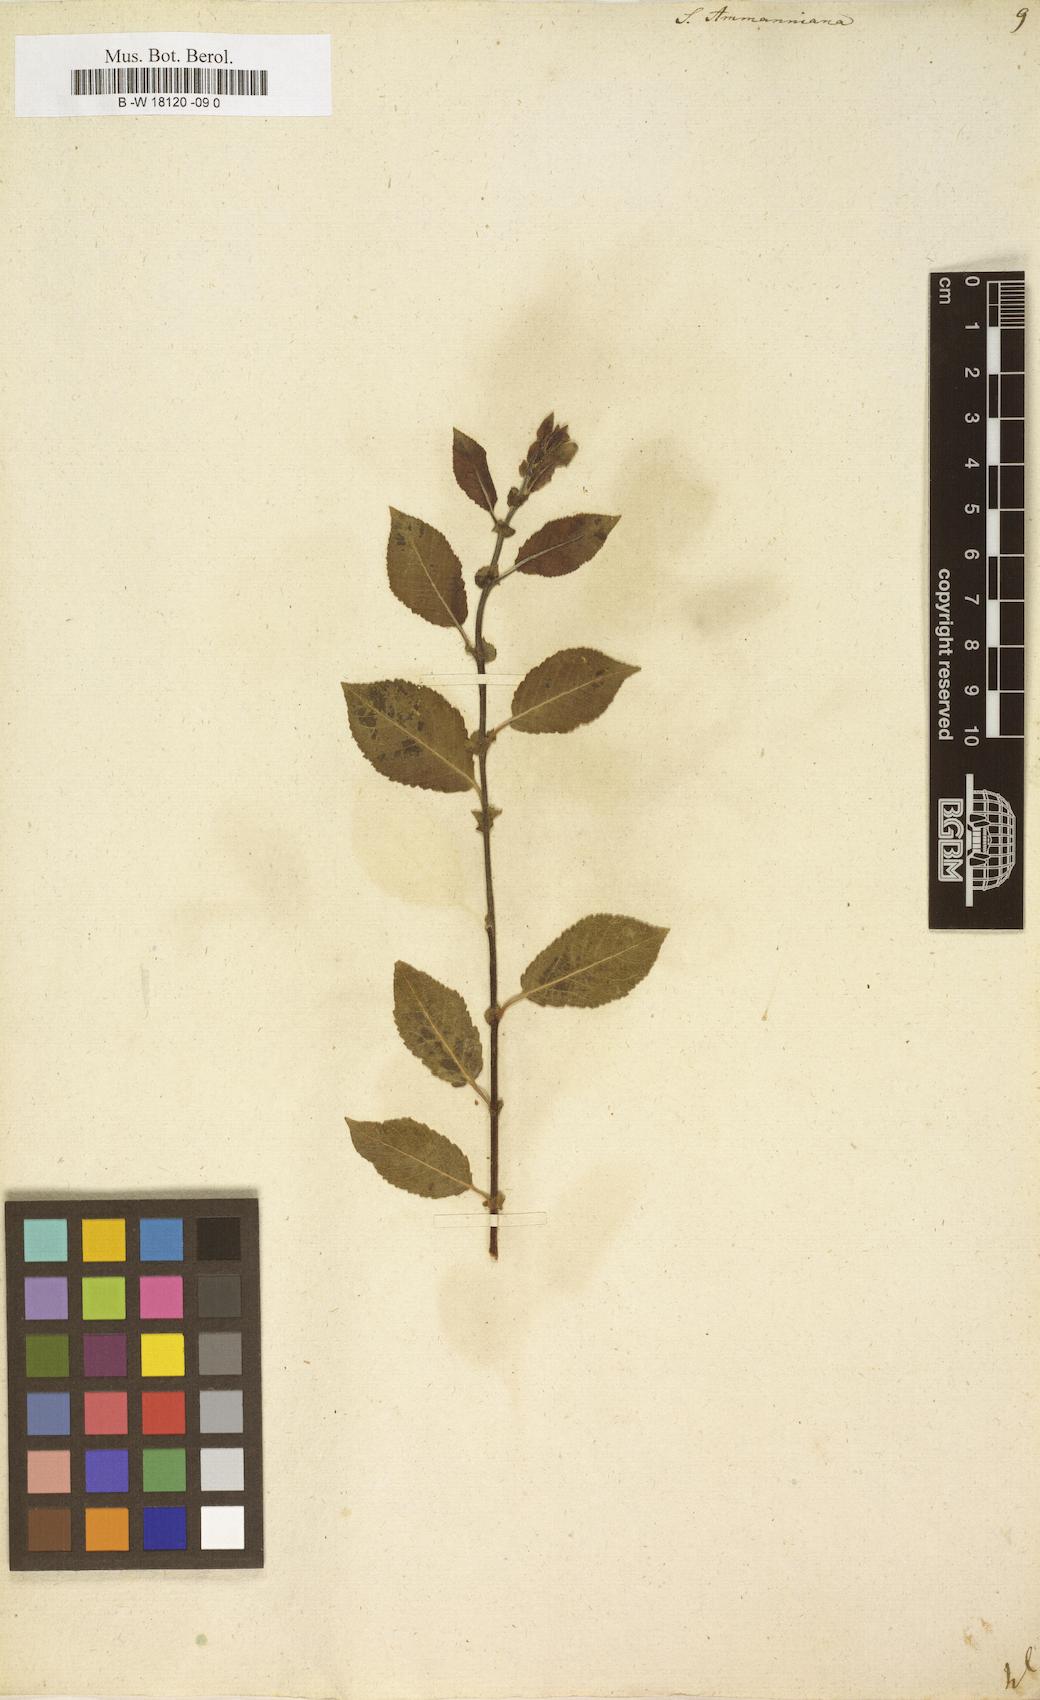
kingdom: Plantae
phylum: Tracheophyta
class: Magnoliopsida
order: Malpighiales
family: Salicaceae
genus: Salix
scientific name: Salix myrsinifolia
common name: Dark-leaved willow
